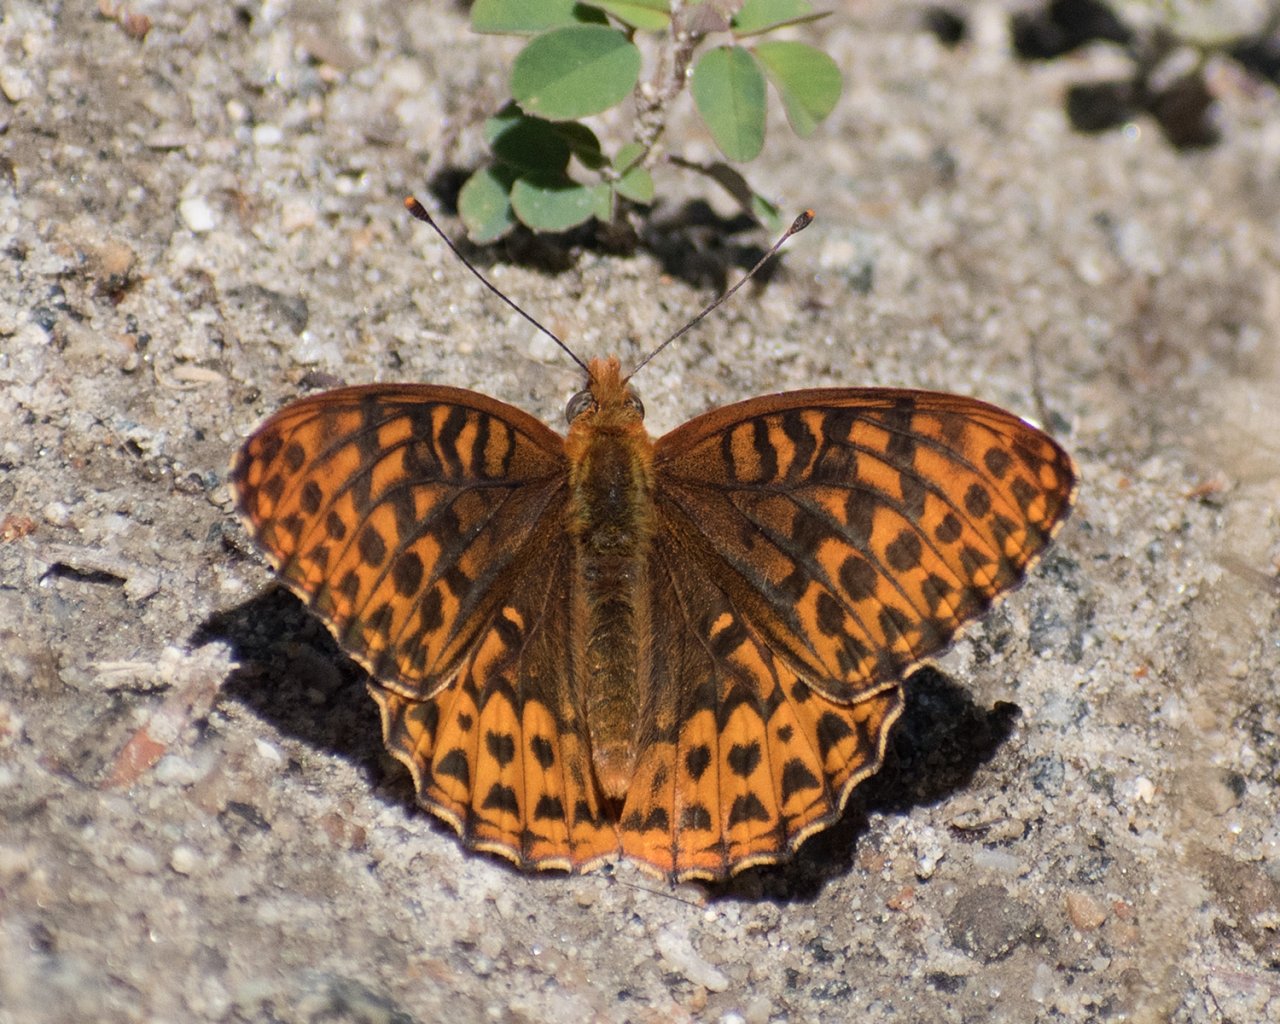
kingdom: Animalia
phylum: Arthropoda
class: Insecta
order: Lepidoptera
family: Nymphalidae
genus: Speyeria
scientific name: Speyeria hydaspe
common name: Hydaspe Fritillary
